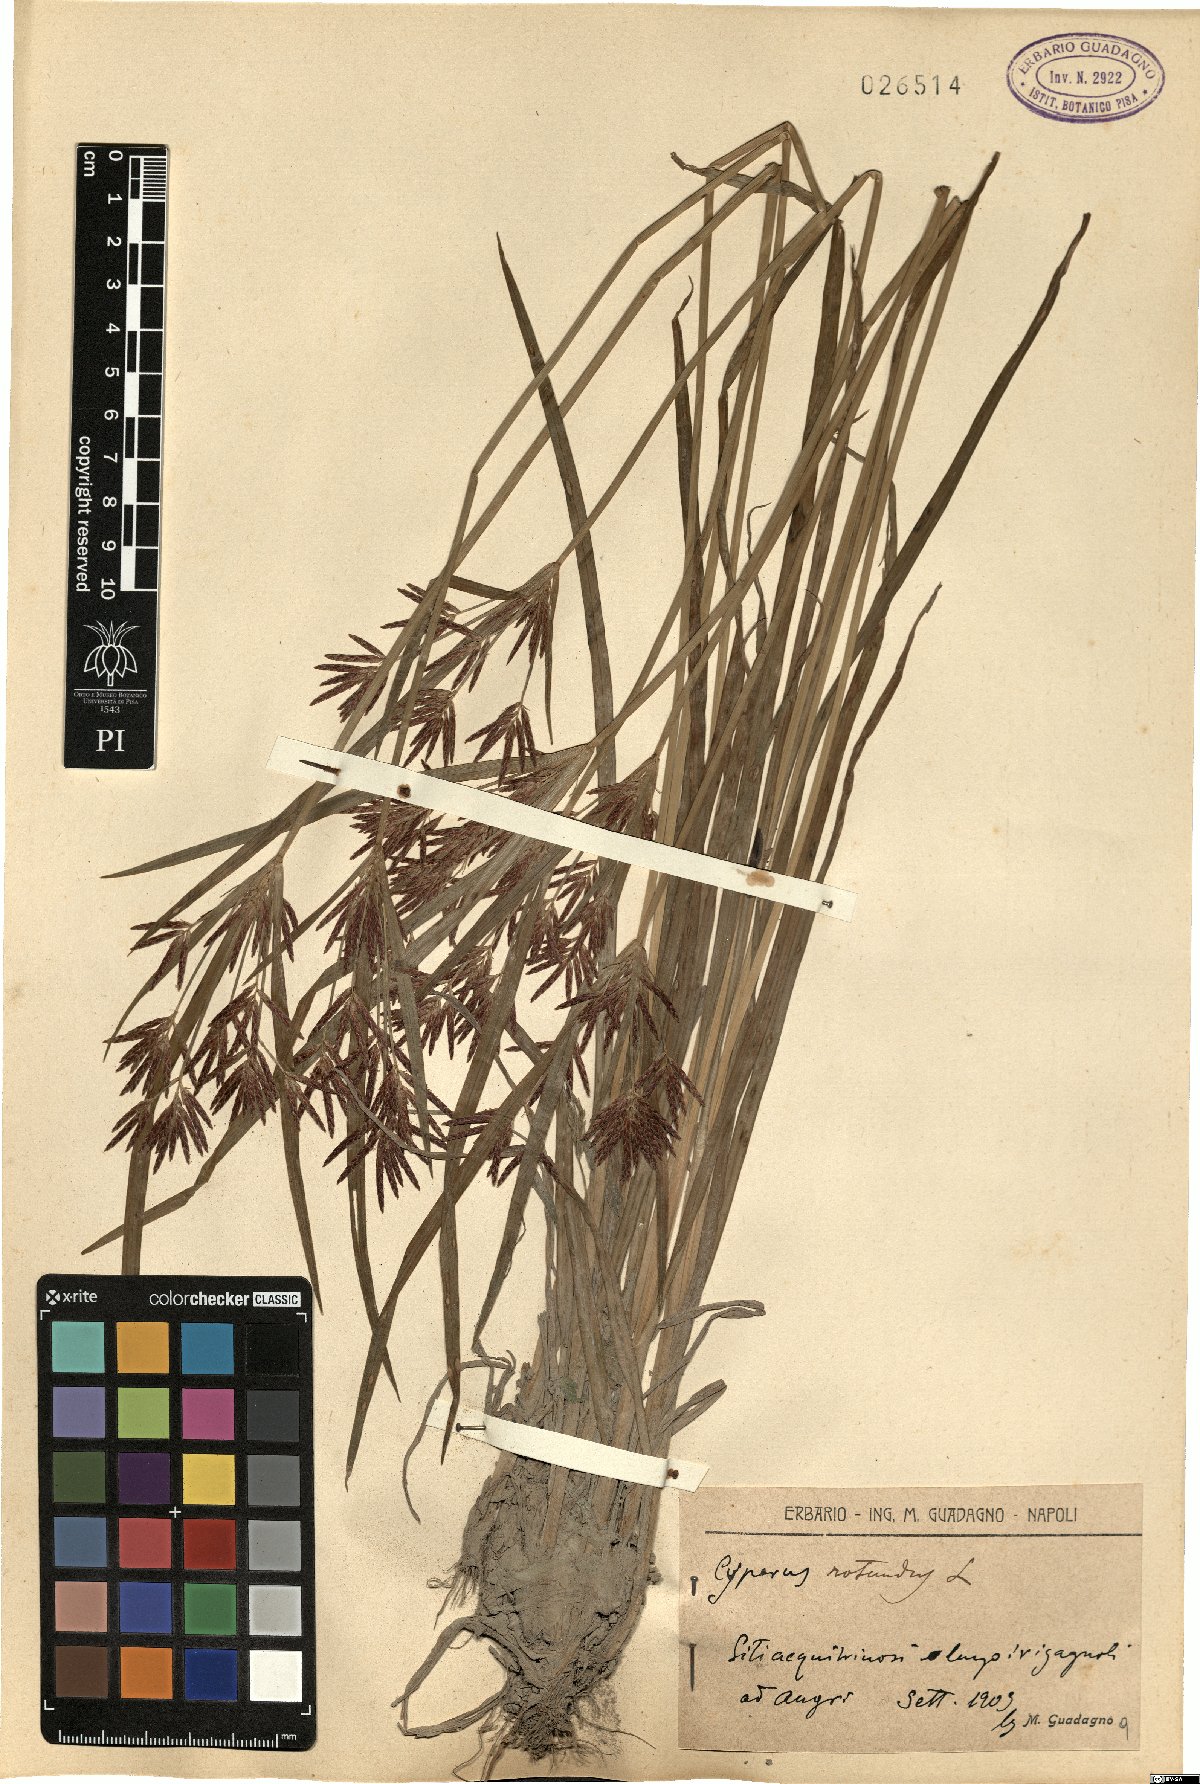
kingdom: Plantae
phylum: Tracheophyta
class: Liliopsida
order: Poales
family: Cyperaceae
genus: Cyperus
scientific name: Cyperus rotundus
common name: Nutgrass
